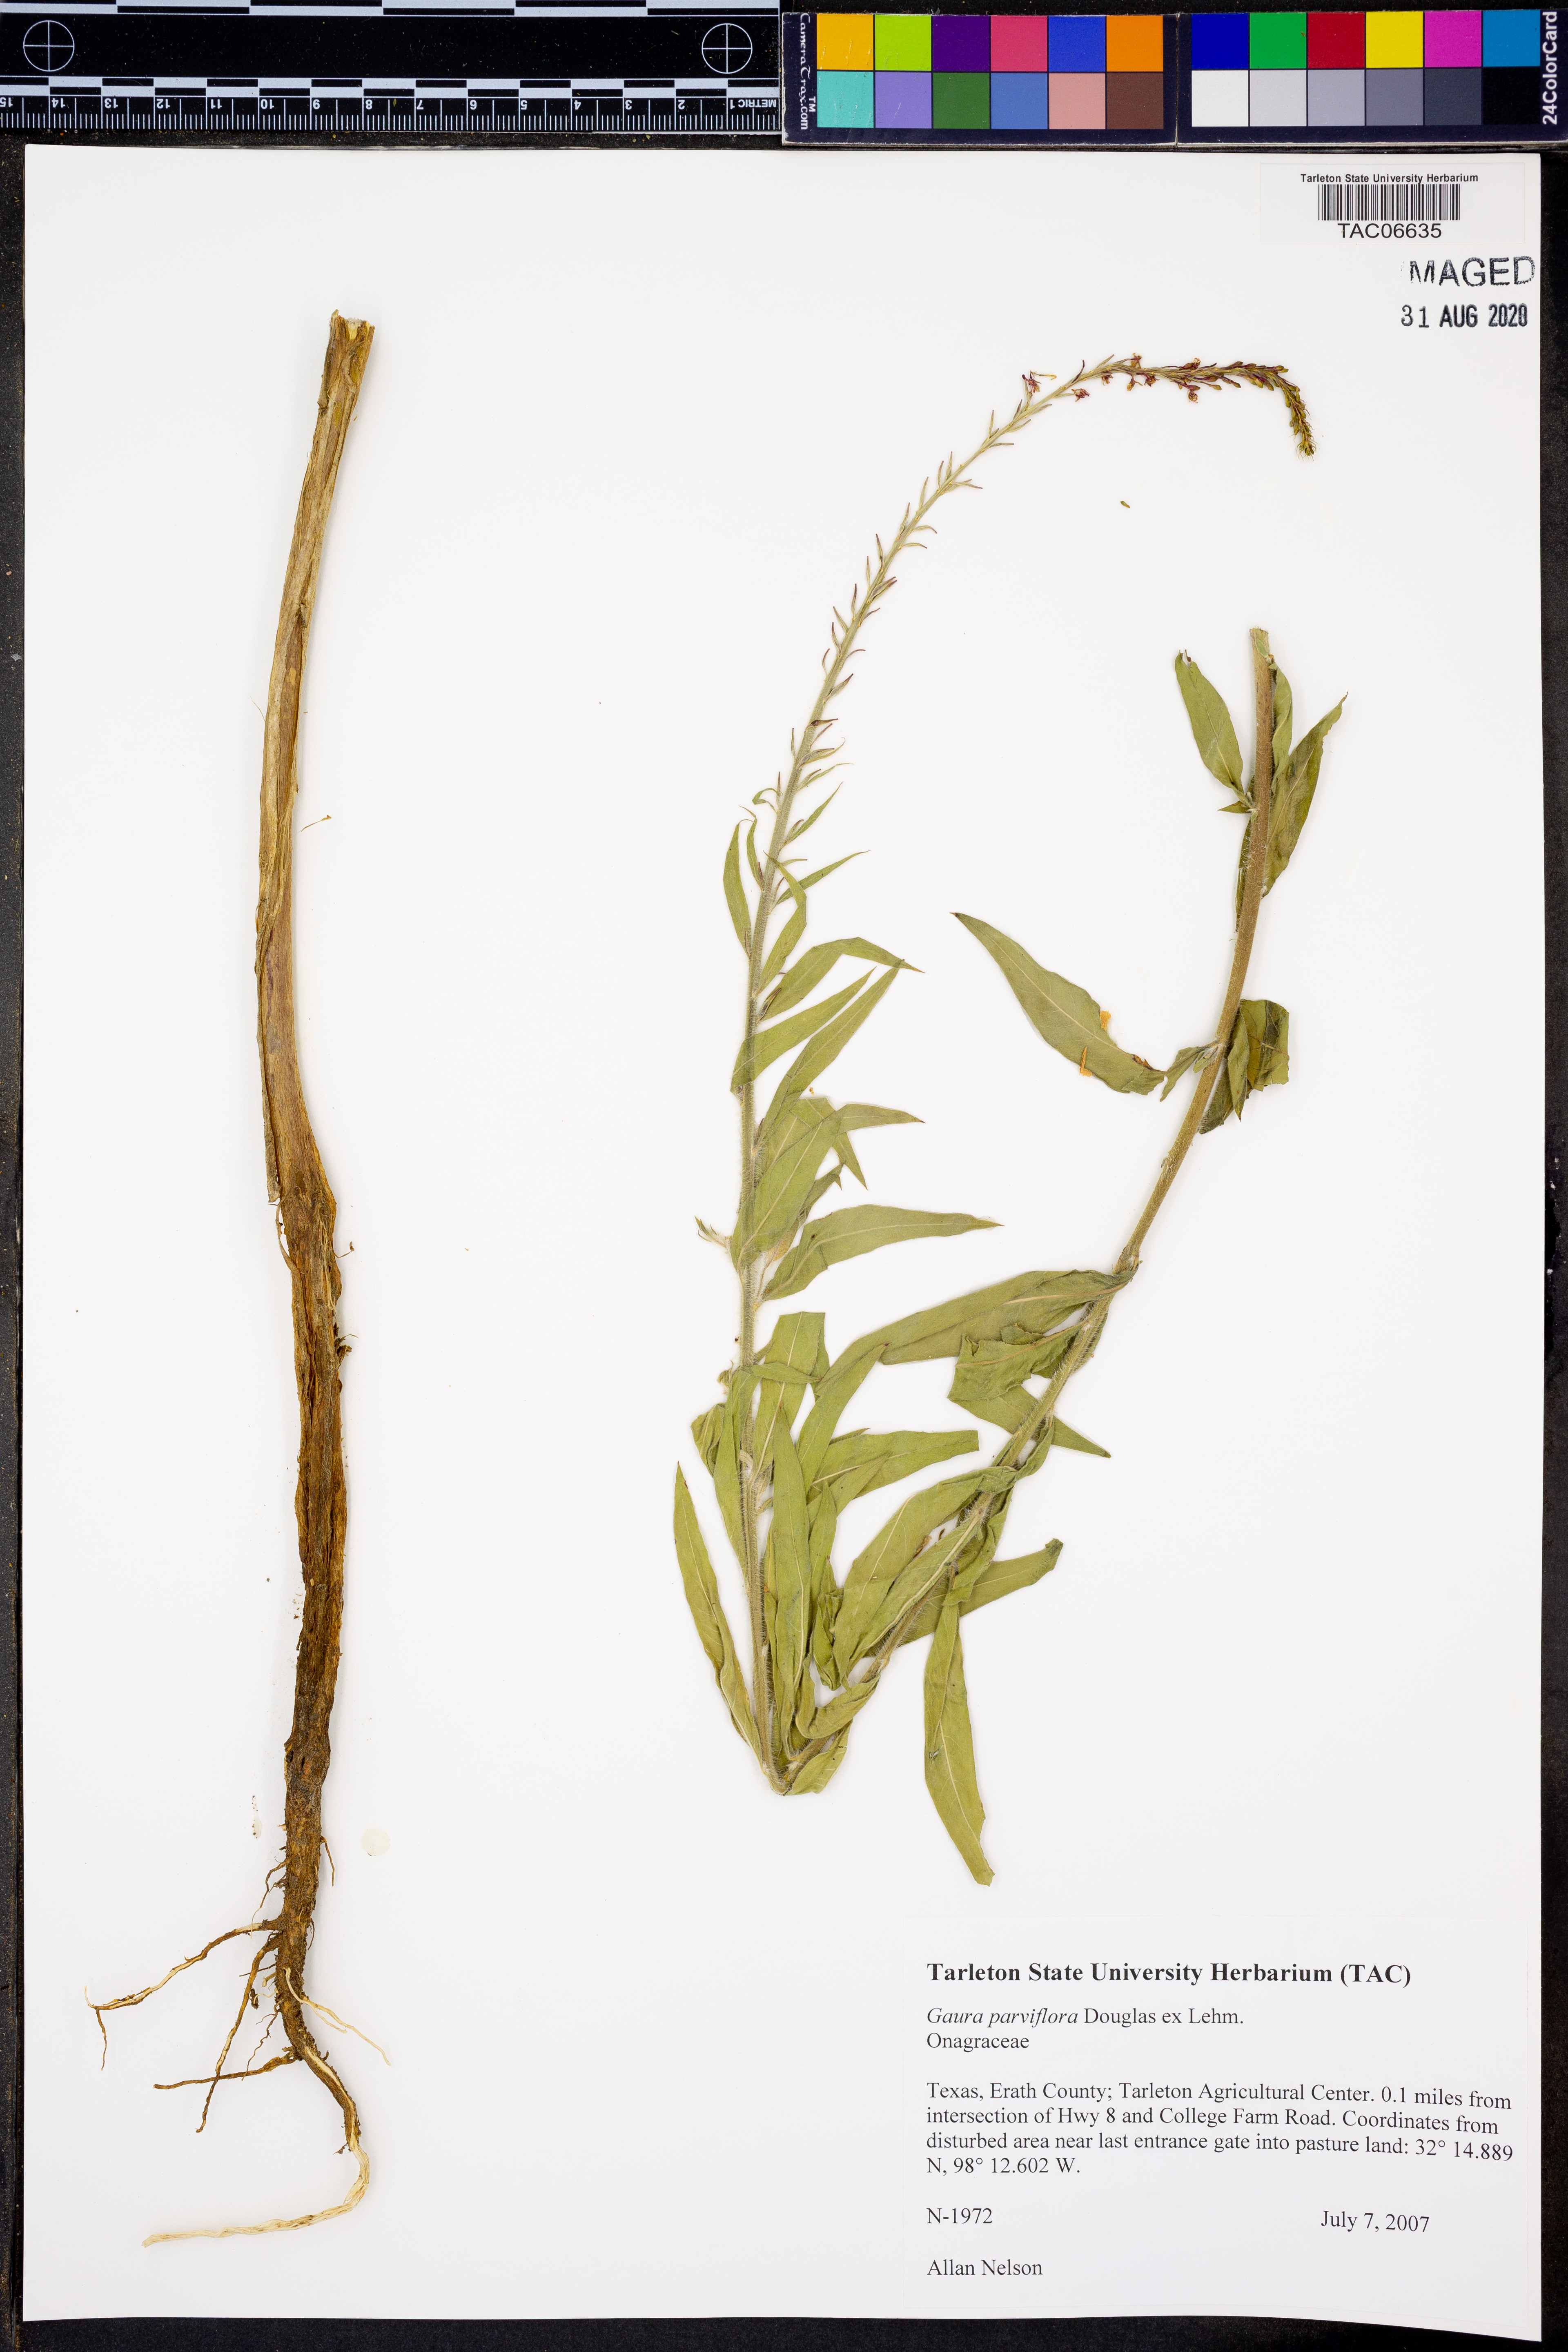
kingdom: Plantae
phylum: Tracheophyta
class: Magnoliopsida
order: Myrtales
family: Onagraceae
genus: Oenothera
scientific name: Oenothera curtiflora
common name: Velvetweed
